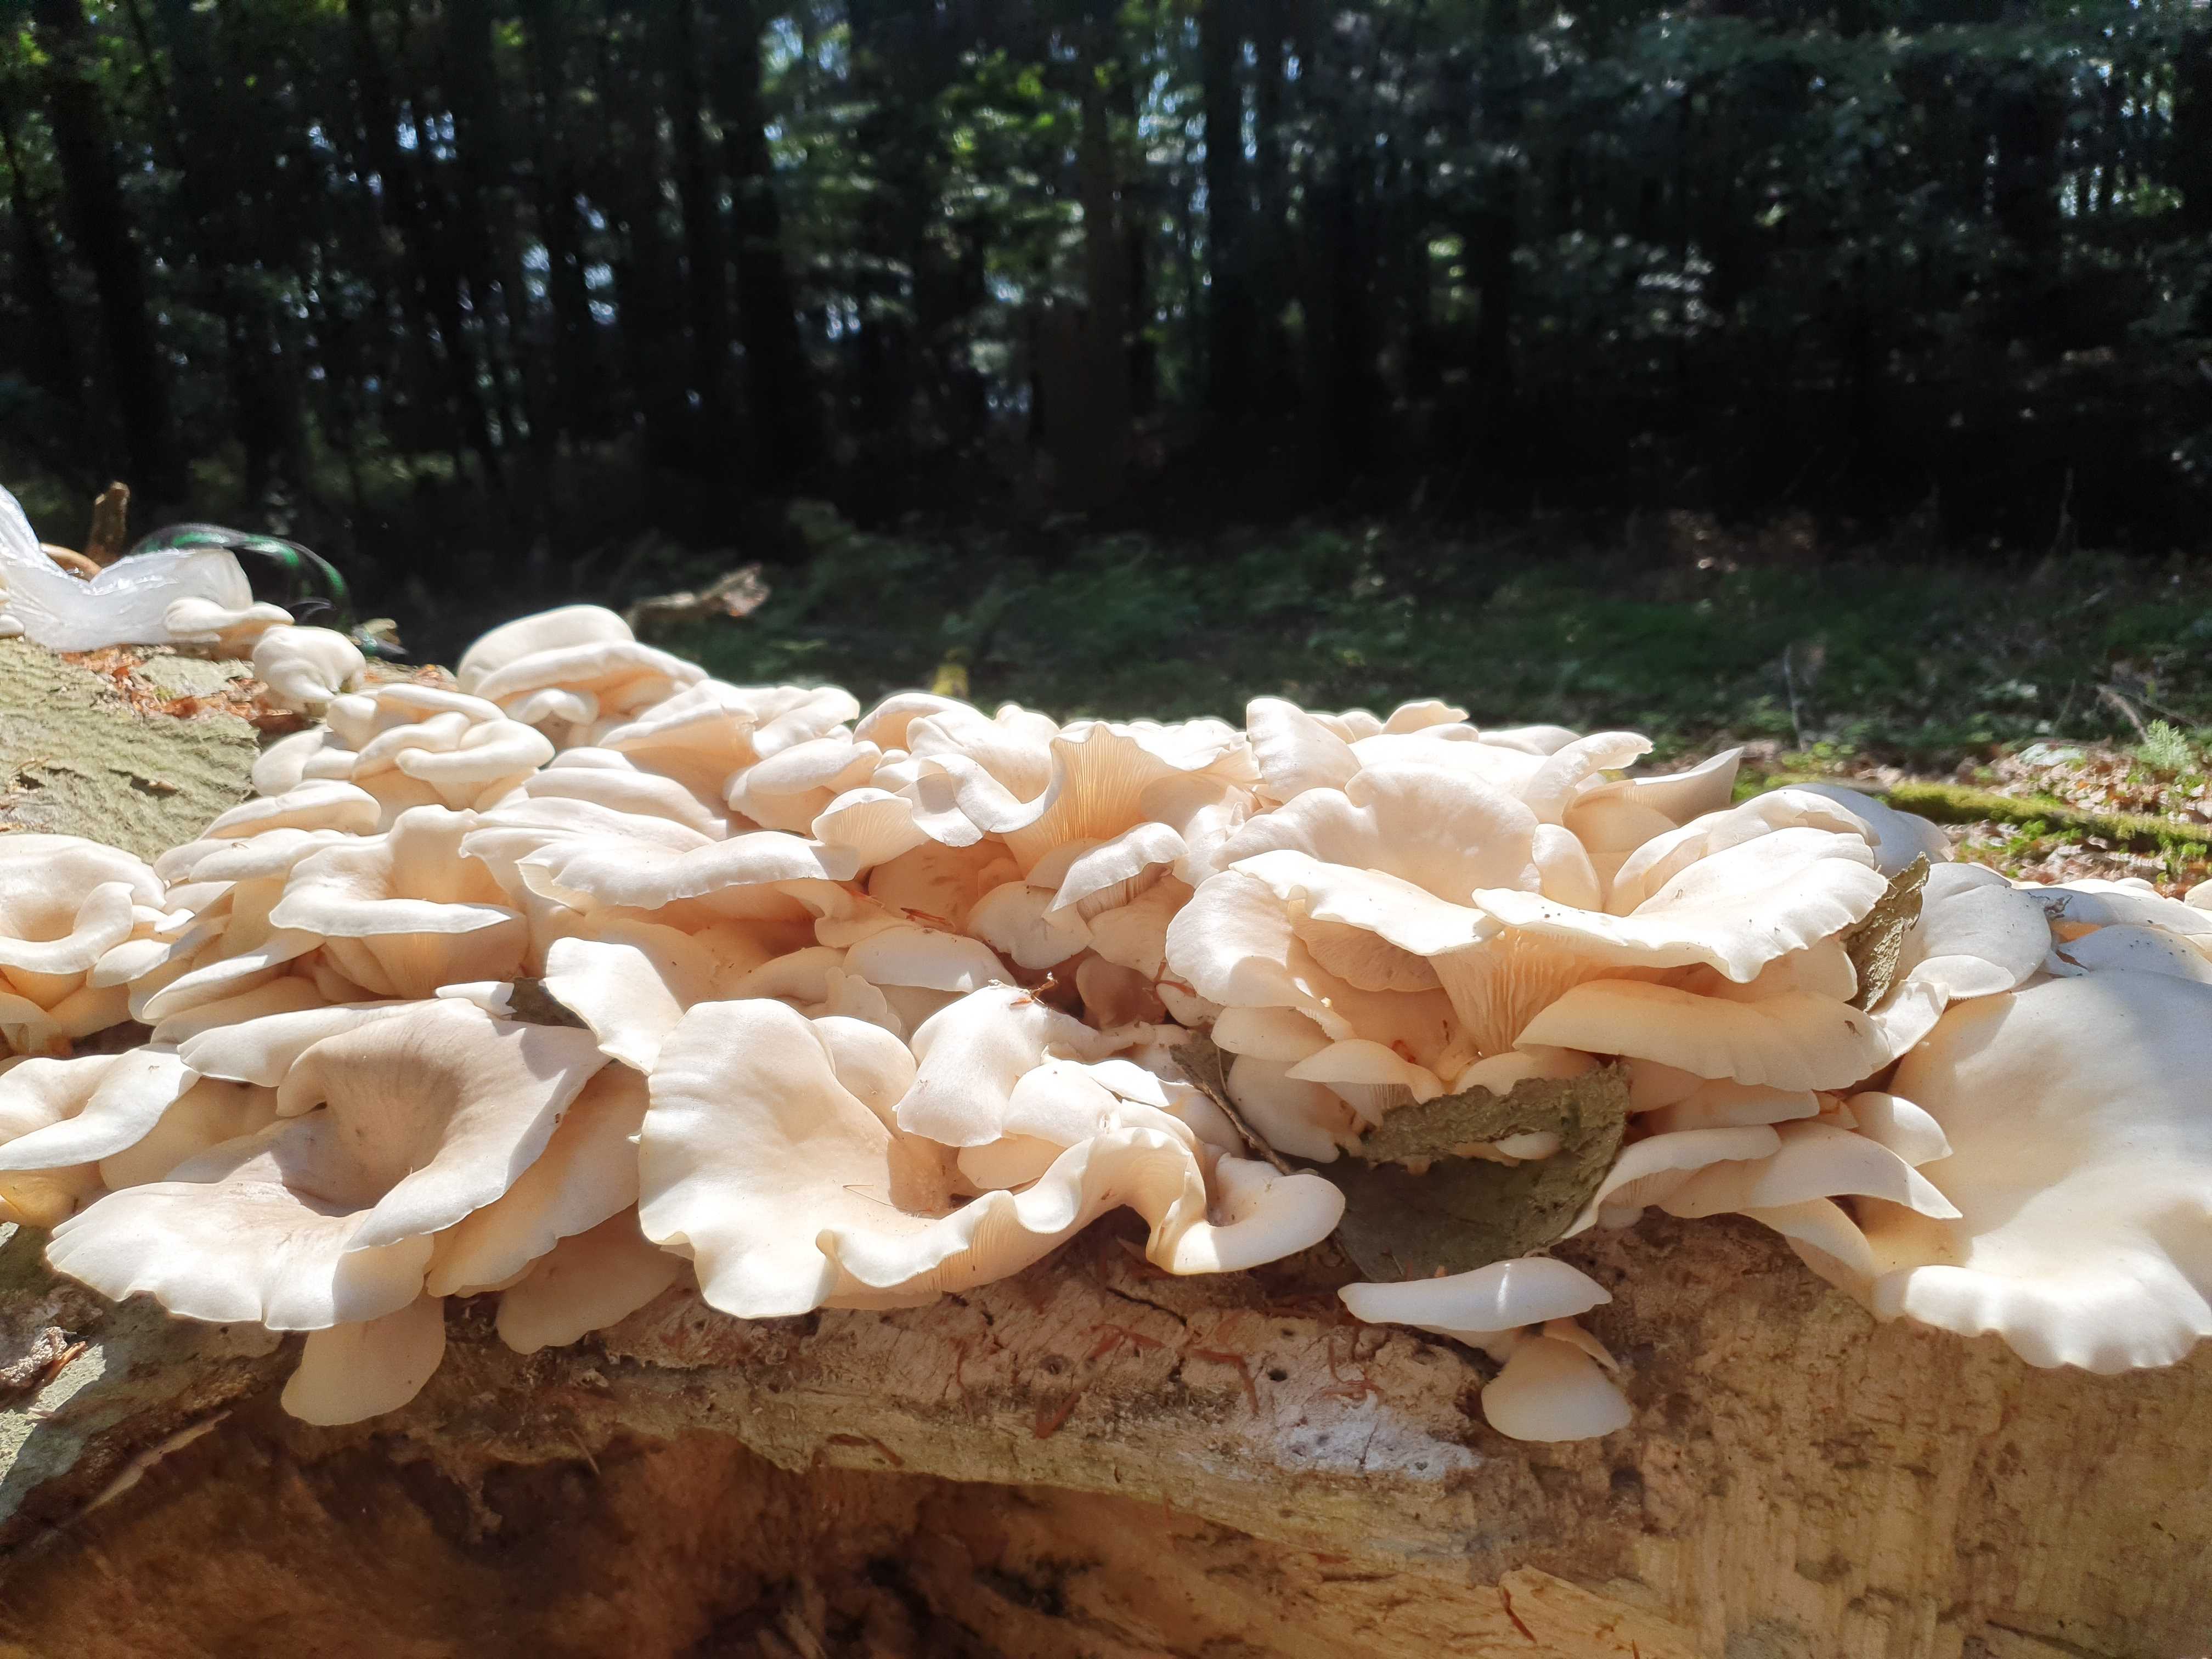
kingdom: Fungi
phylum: Basidiomycota
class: Agaricomycetes
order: Agaricales
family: Pleurotaceae
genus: Pleurotus
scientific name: Pleurotus pulmonarius
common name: sommer-østershat
